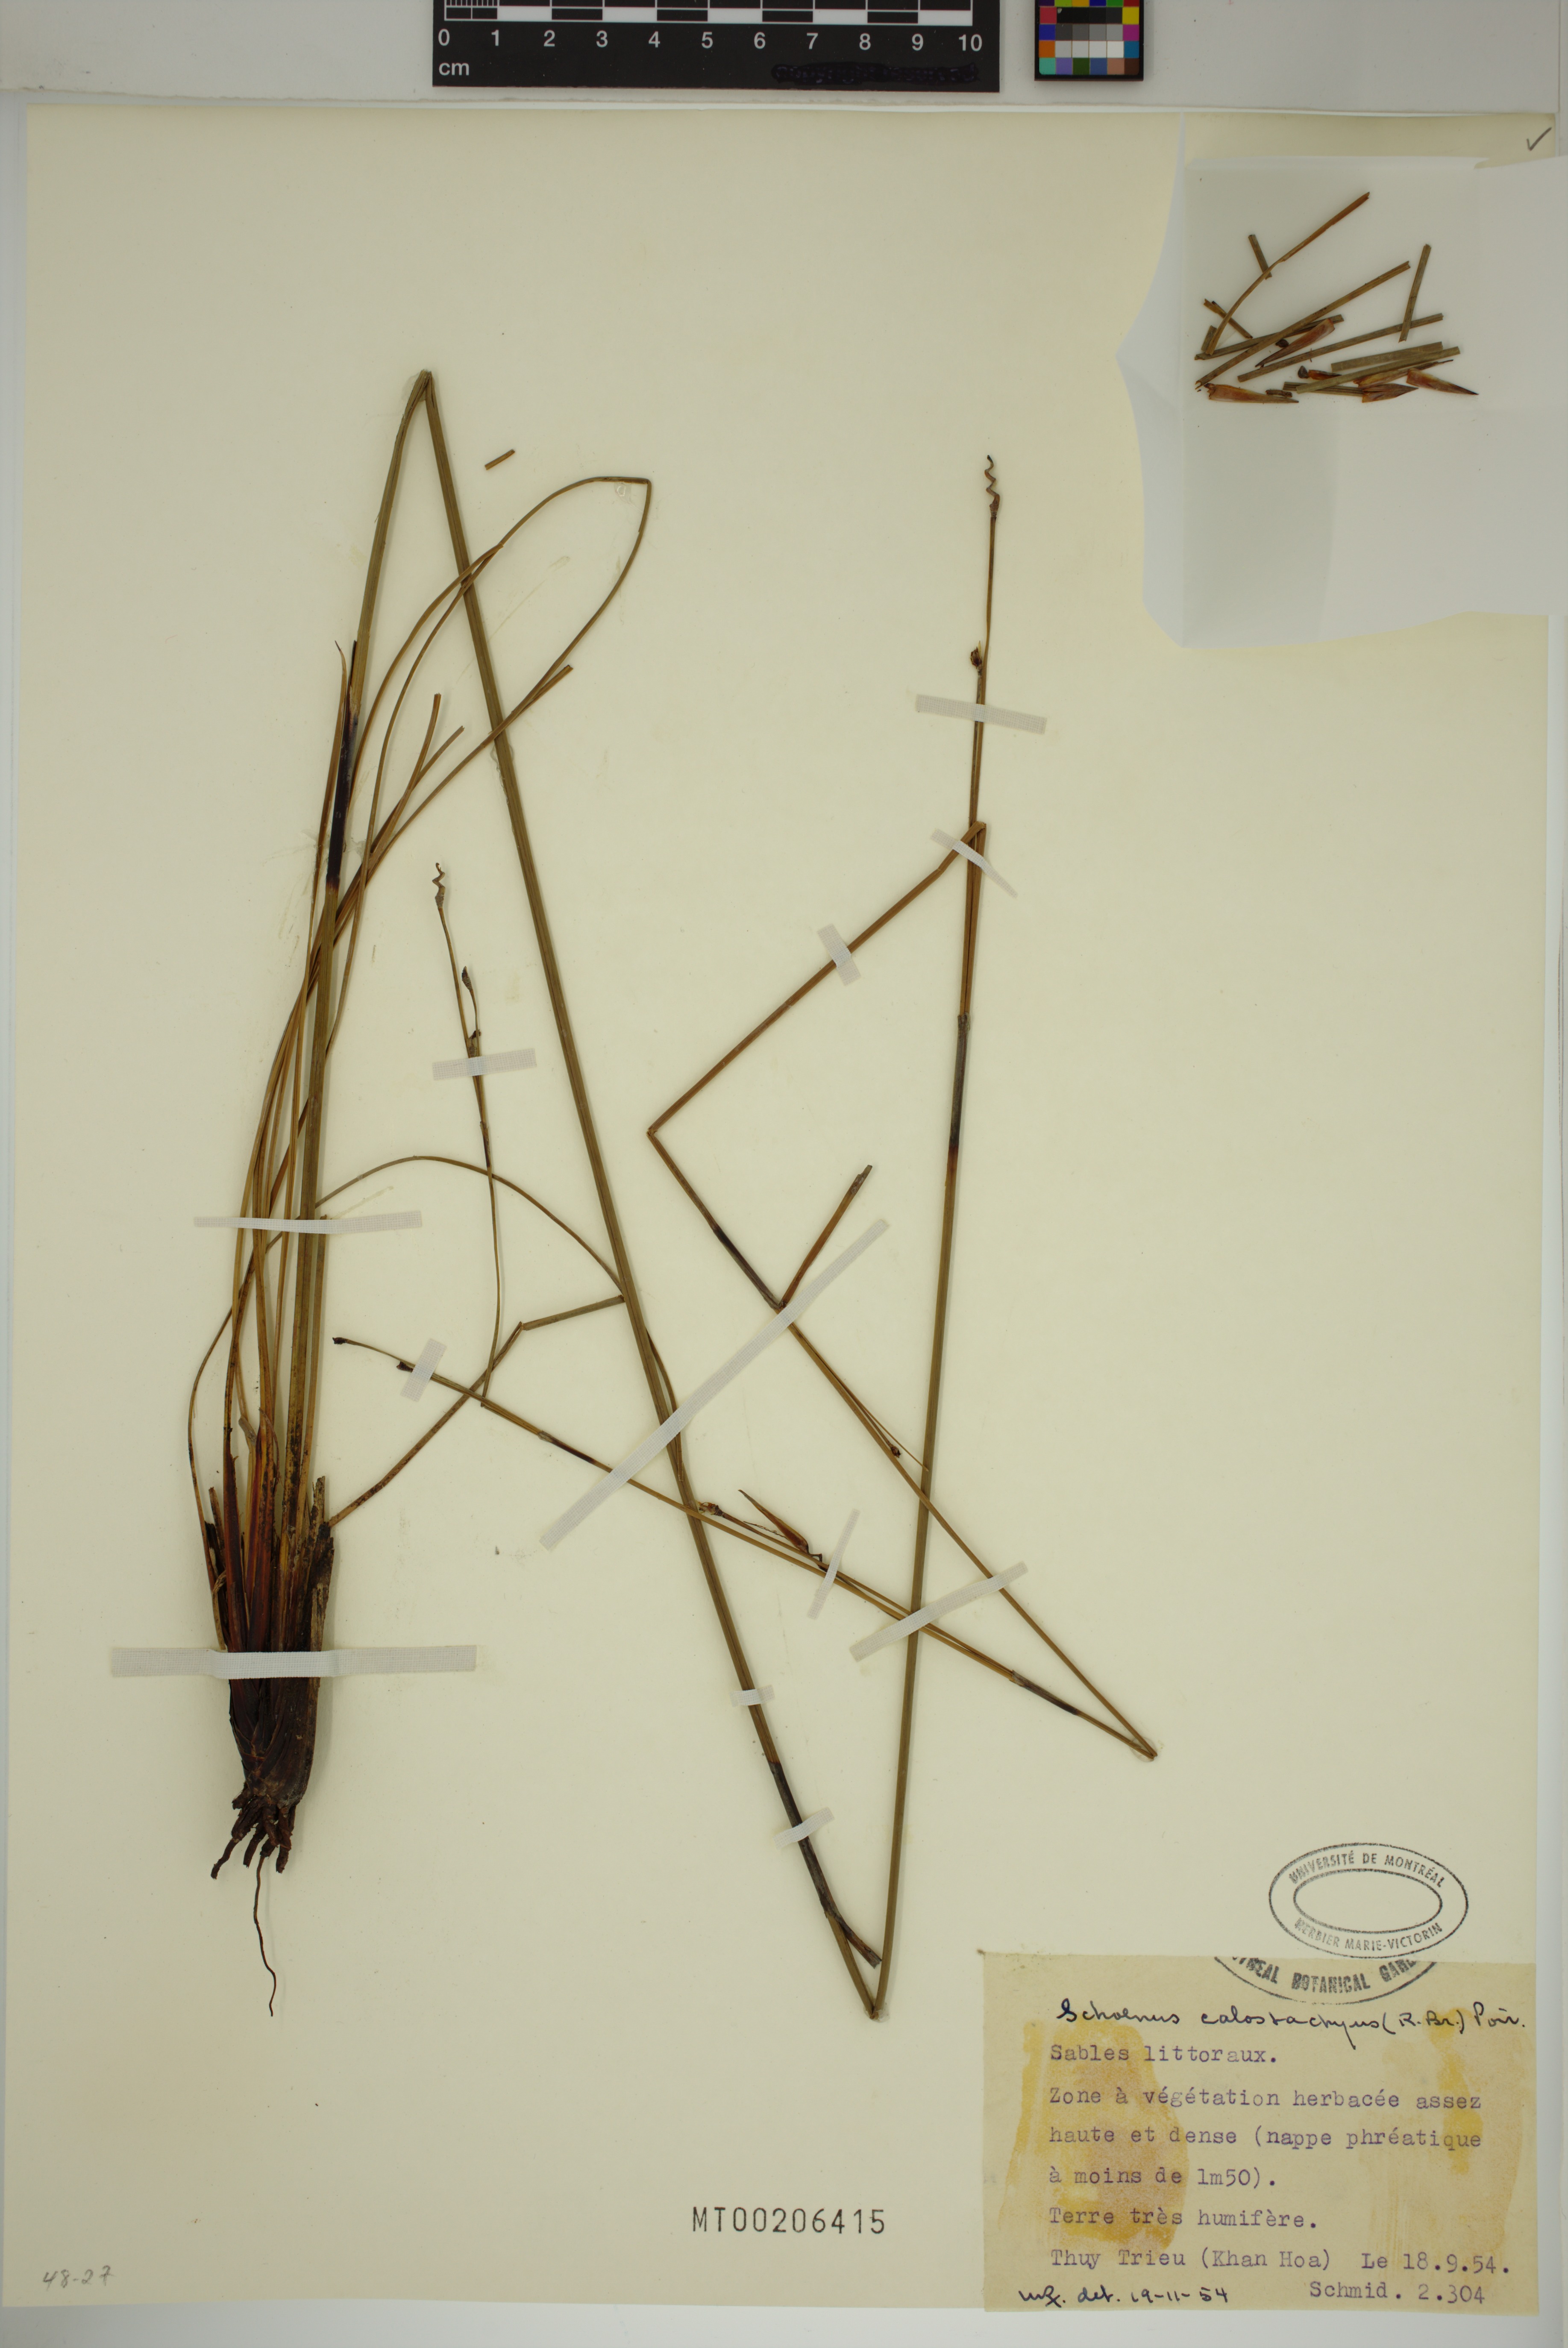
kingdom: Plantae
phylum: Tracheophyta
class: Liliopsida
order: Poales
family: Cyperaceae
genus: Schoenus
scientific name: Schoenus calostachyus
